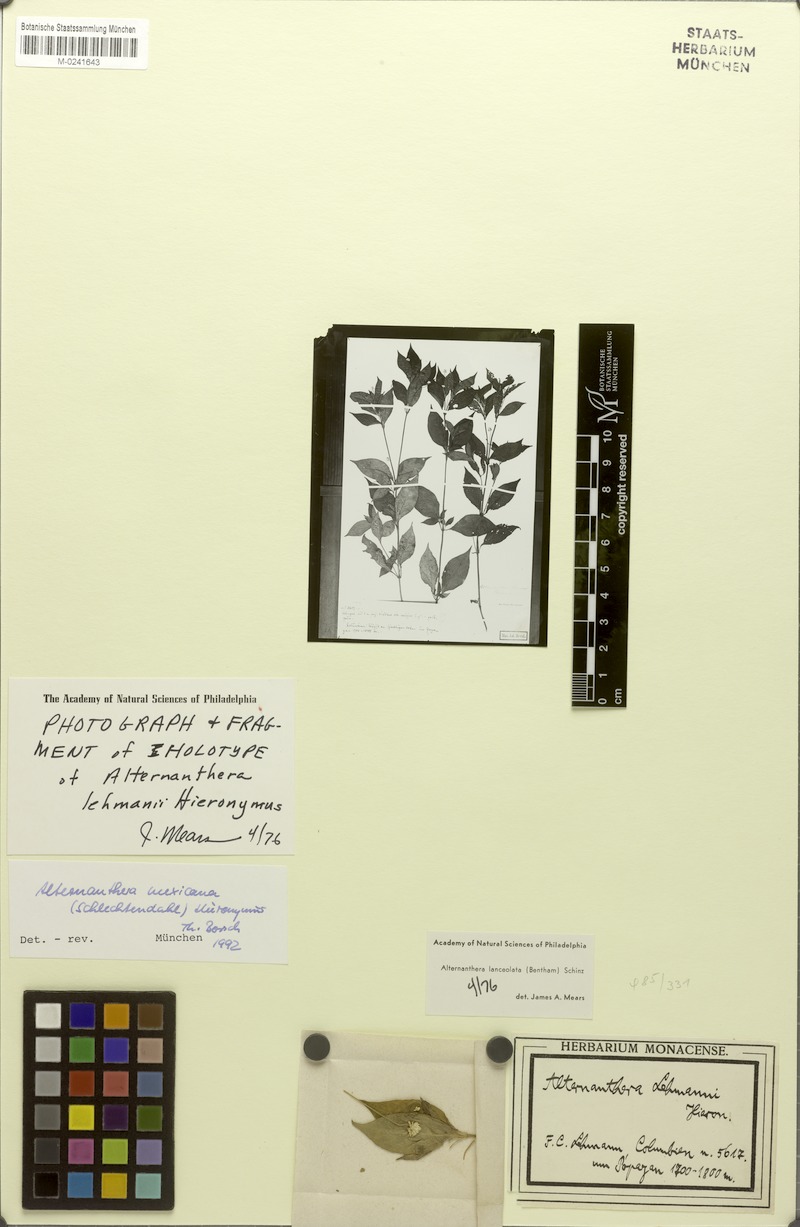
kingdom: Plantae
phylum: Tracheophyta
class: Magnoliopsida
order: Caryophyllales
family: Amaranthaceae
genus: Alternanthera
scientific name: Alternanthera lanceolata
